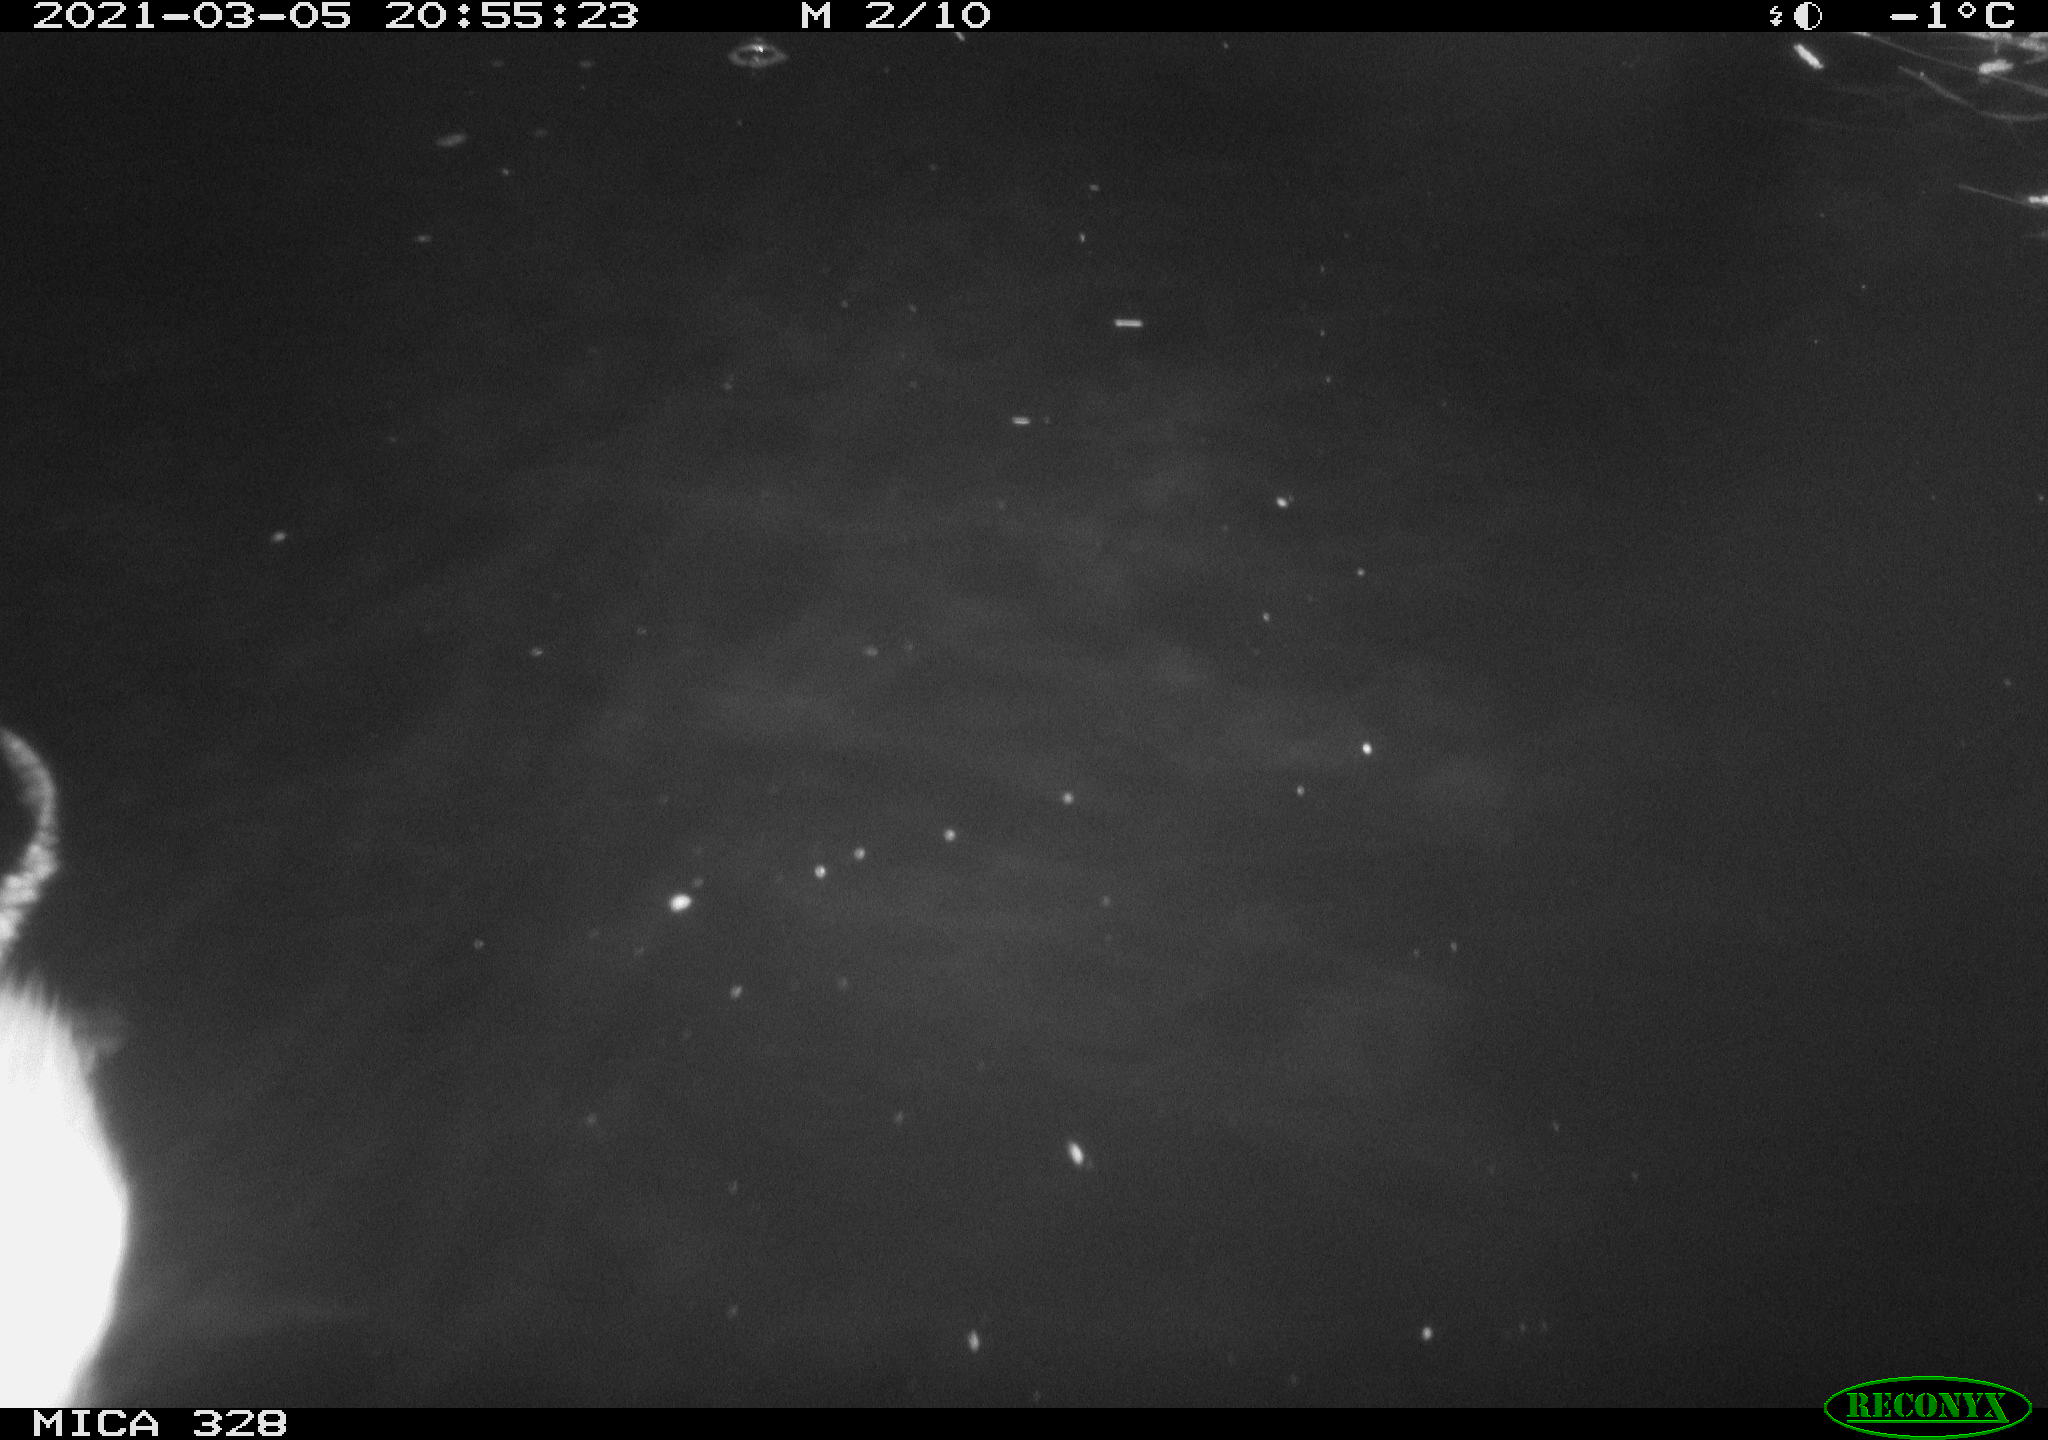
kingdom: Animalia
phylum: Chordata
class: Mammalia
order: Rodentia
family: Cricetidae
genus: Ondatra
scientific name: Ondatra zibethicus
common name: Muskrat
